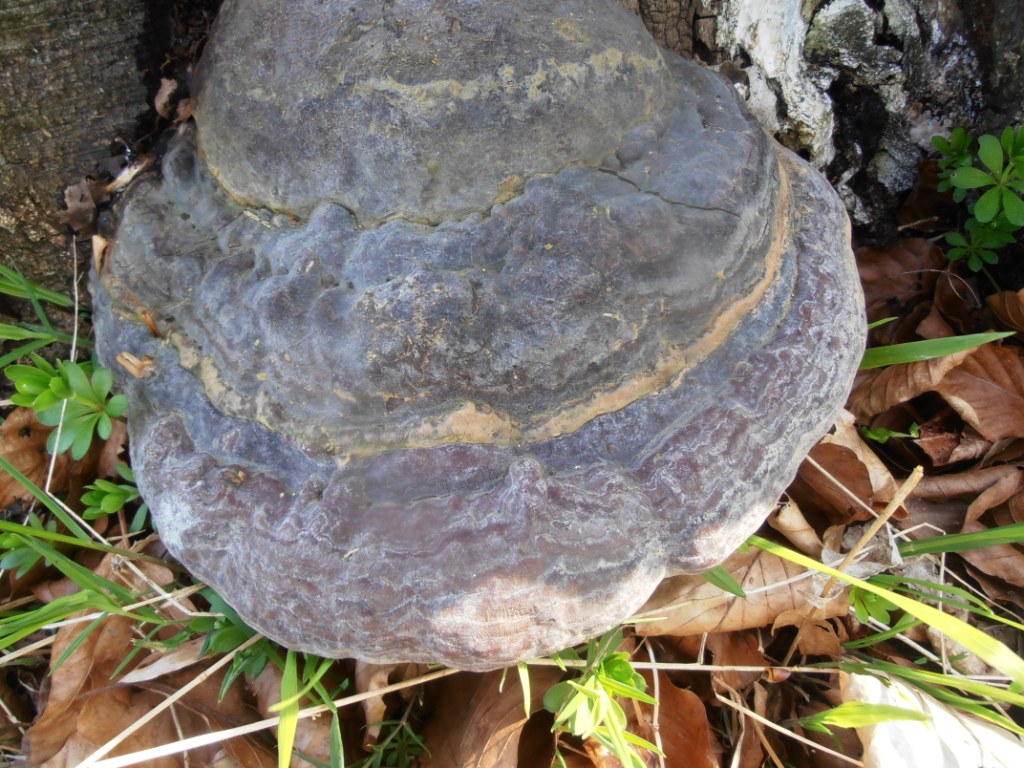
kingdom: Fungi
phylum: Basidiomycota
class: Agaricomycetes
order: Polyporales
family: Polyporaceae
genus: Ganoderma
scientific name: Ganoderma pfeifferi
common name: kobberrød lakporesvamp
